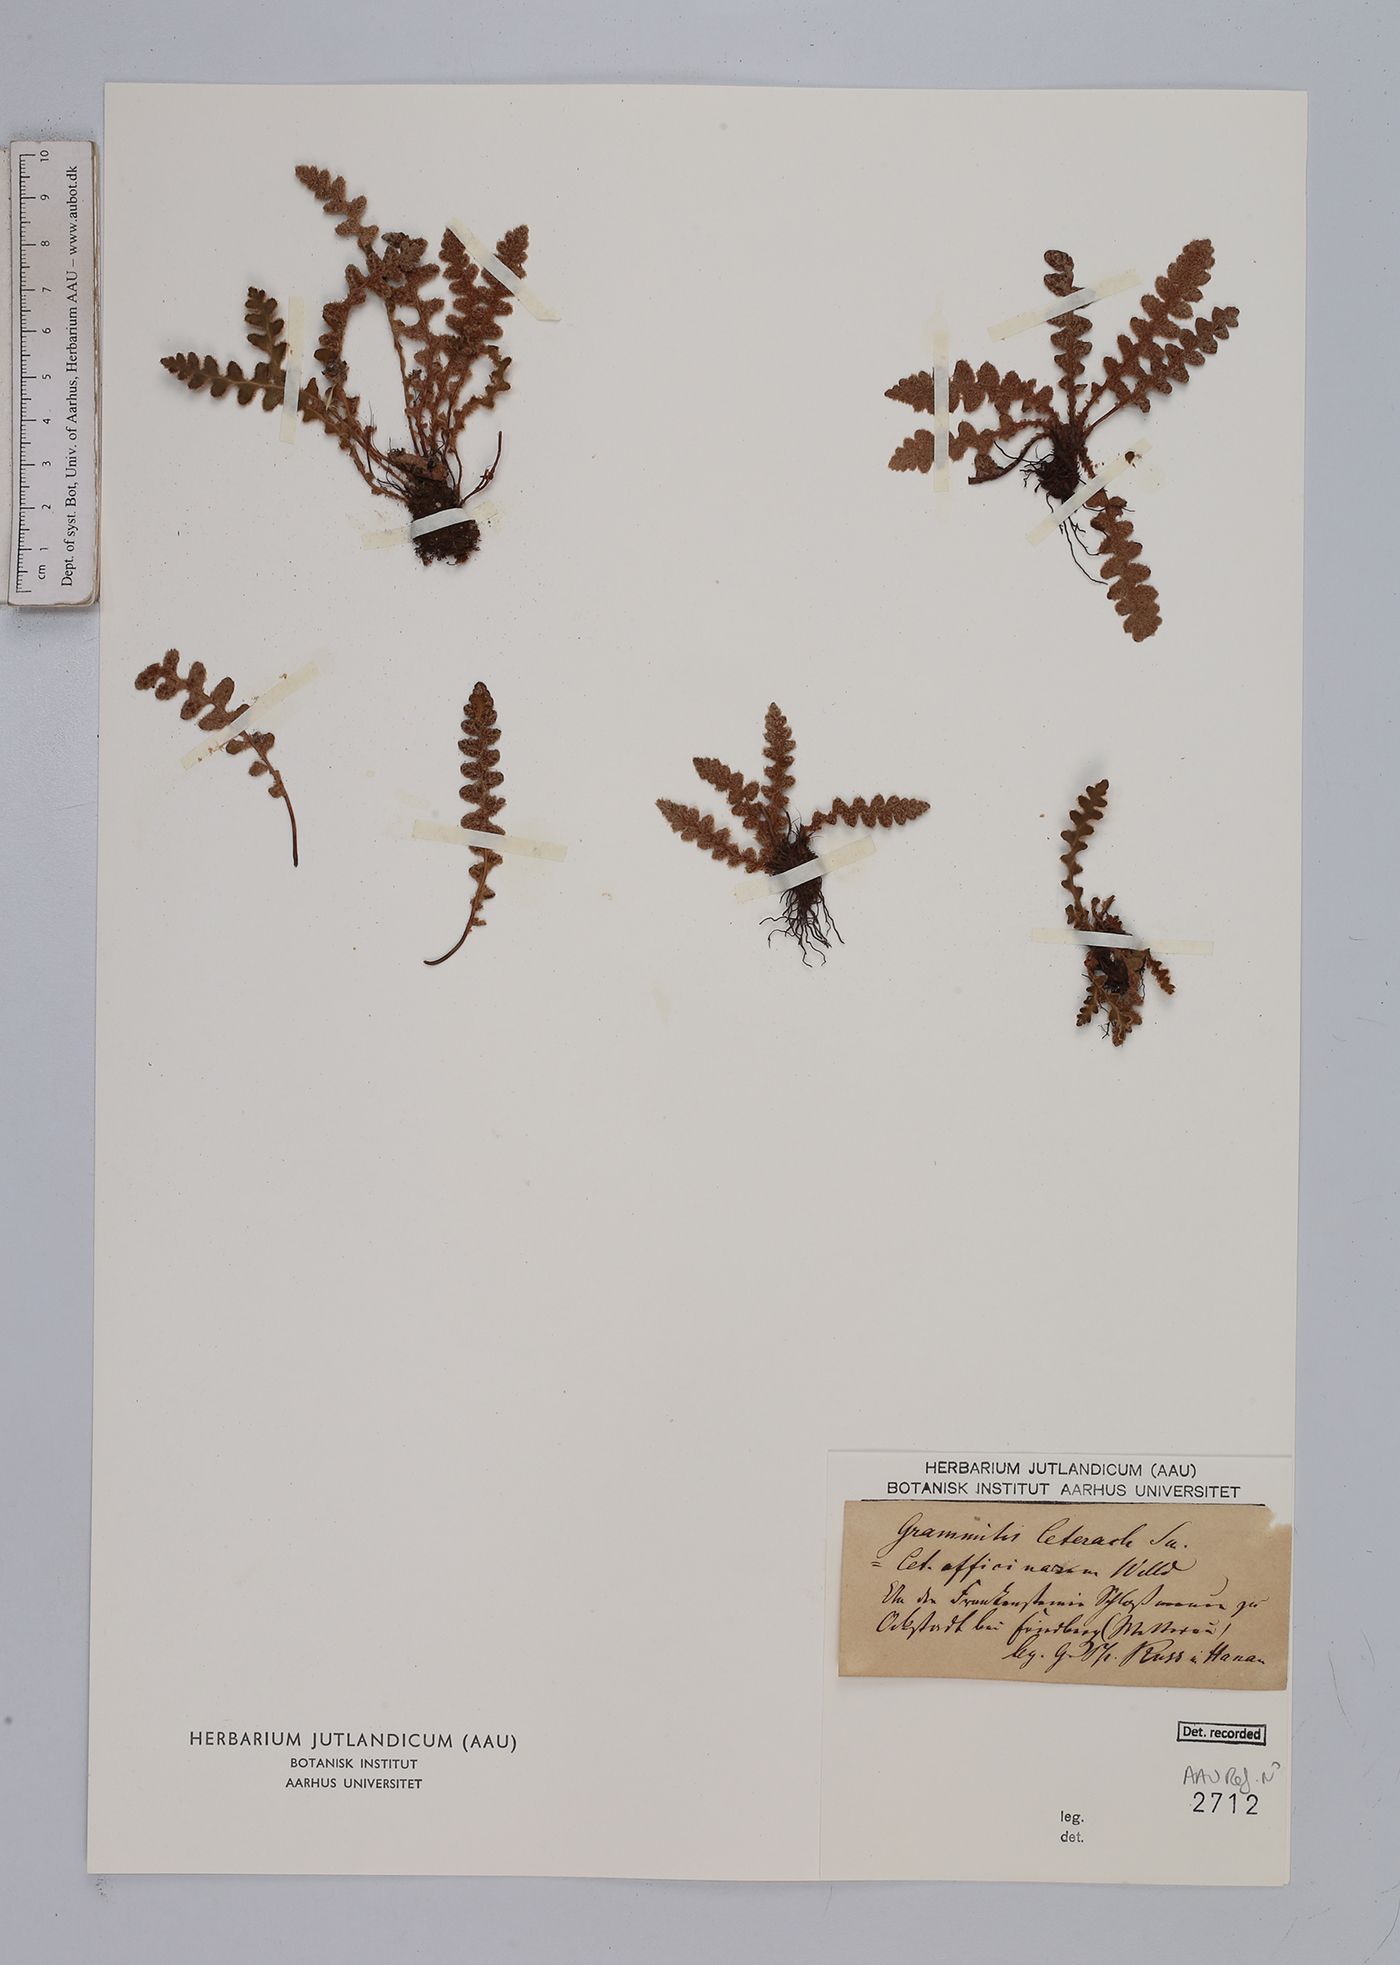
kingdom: Plantae
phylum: Tracheophyta
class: Polypodiopsida
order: Polypodiales
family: Aspleniaceae
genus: Asplenium
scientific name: Asplenium ceterach
